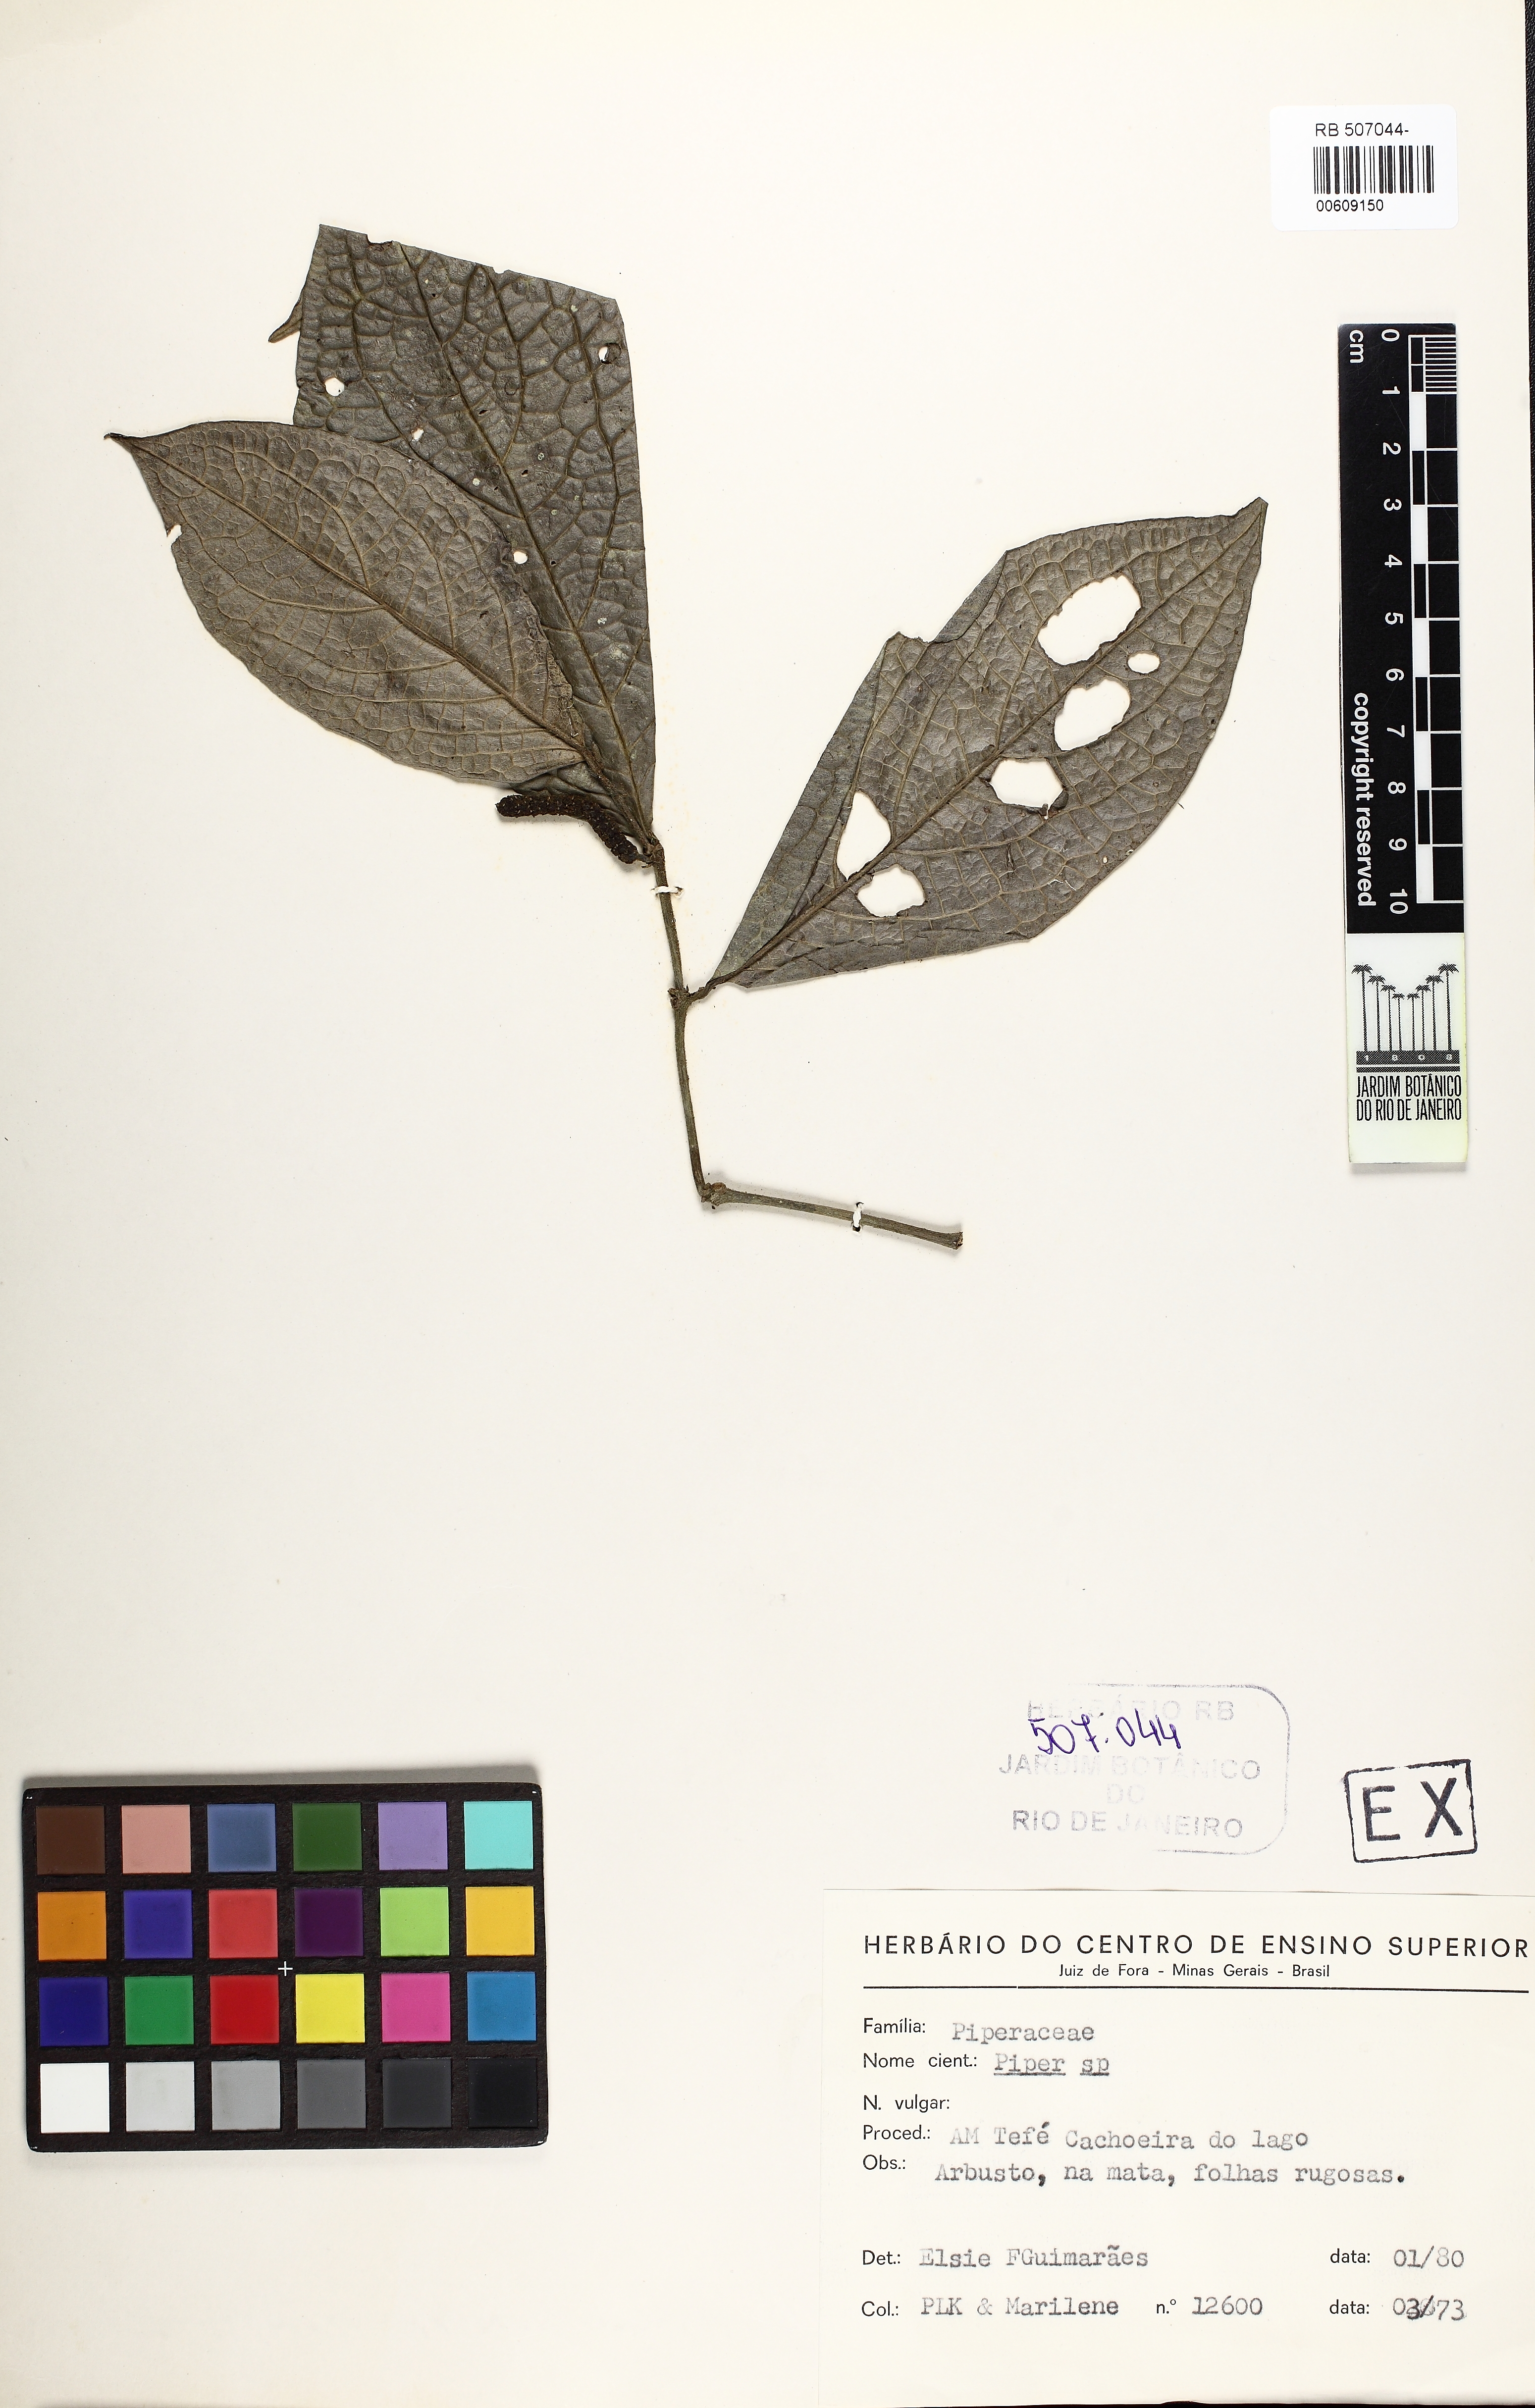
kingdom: Plantae
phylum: Tracheophyta
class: Magnoliopsida
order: Piperales
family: Piperaceae
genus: Piper
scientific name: Piper
